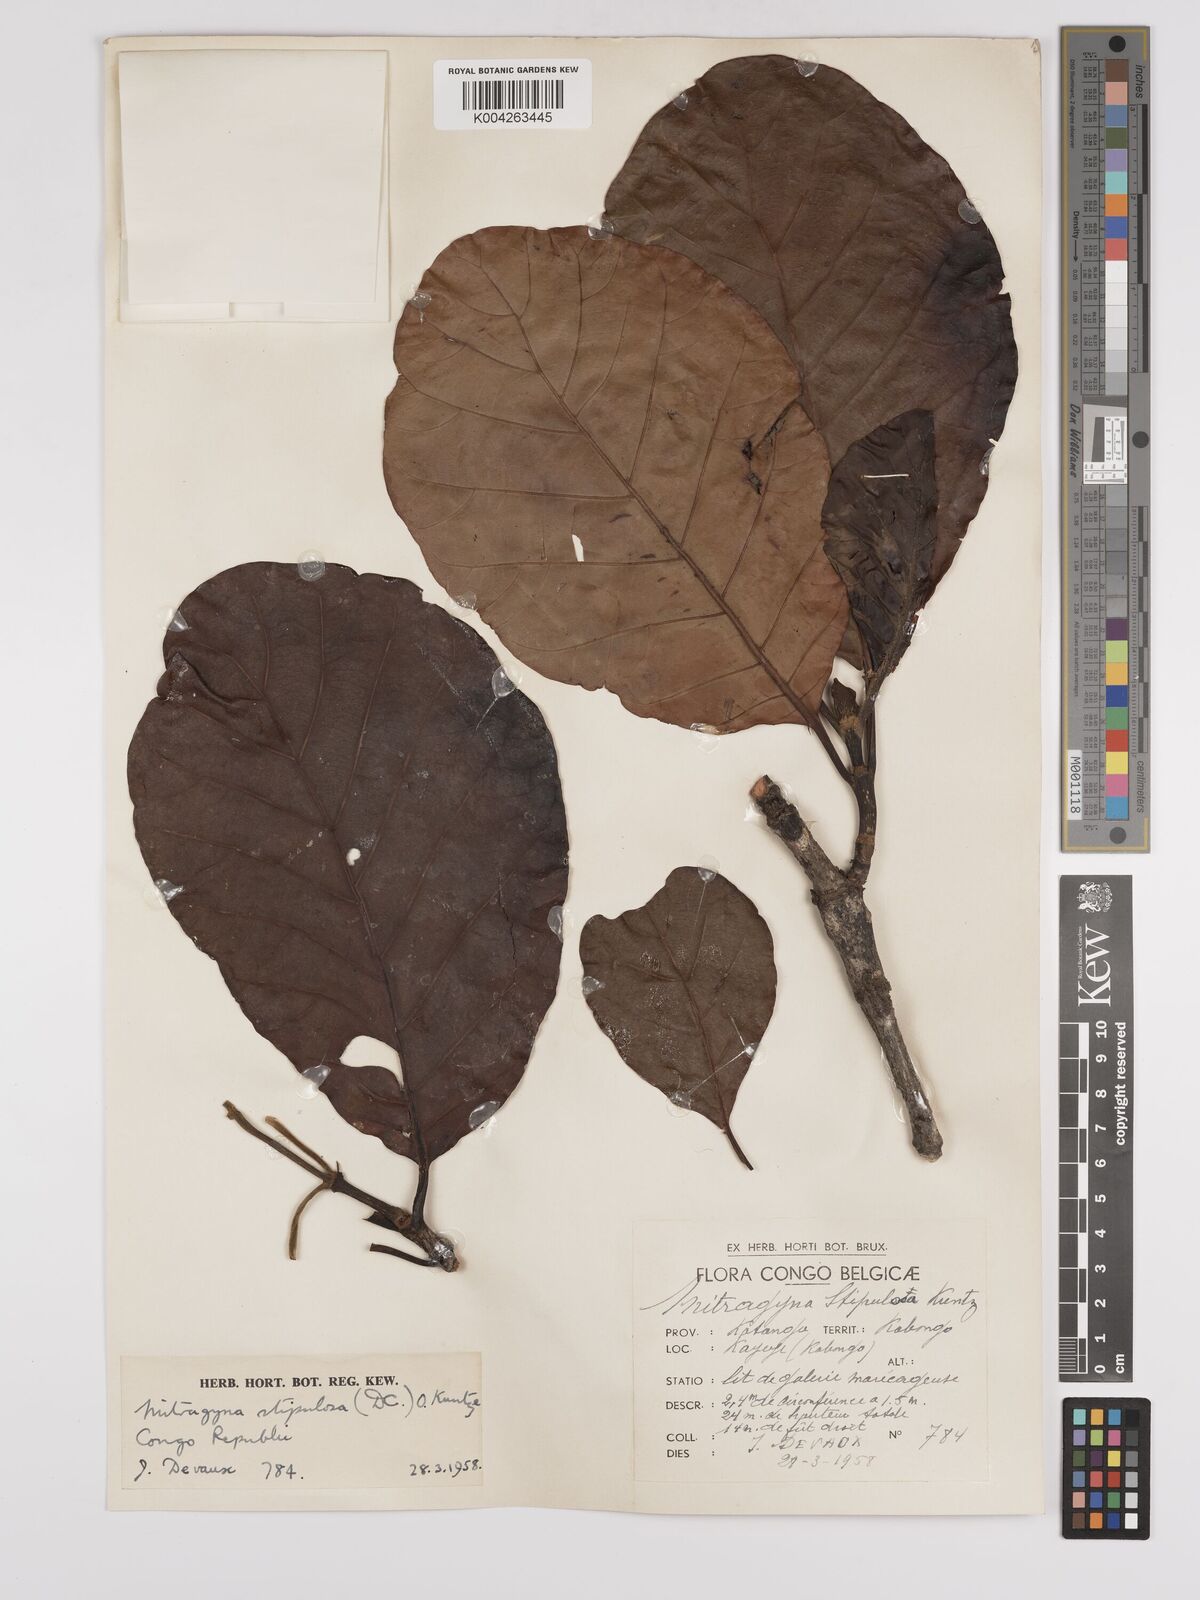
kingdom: Plantae
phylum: Tracheophyta
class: Magnoliopsida
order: Gentianales
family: Rubiaceae
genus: Mitragyna
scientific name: Mitragyna stipulosa
